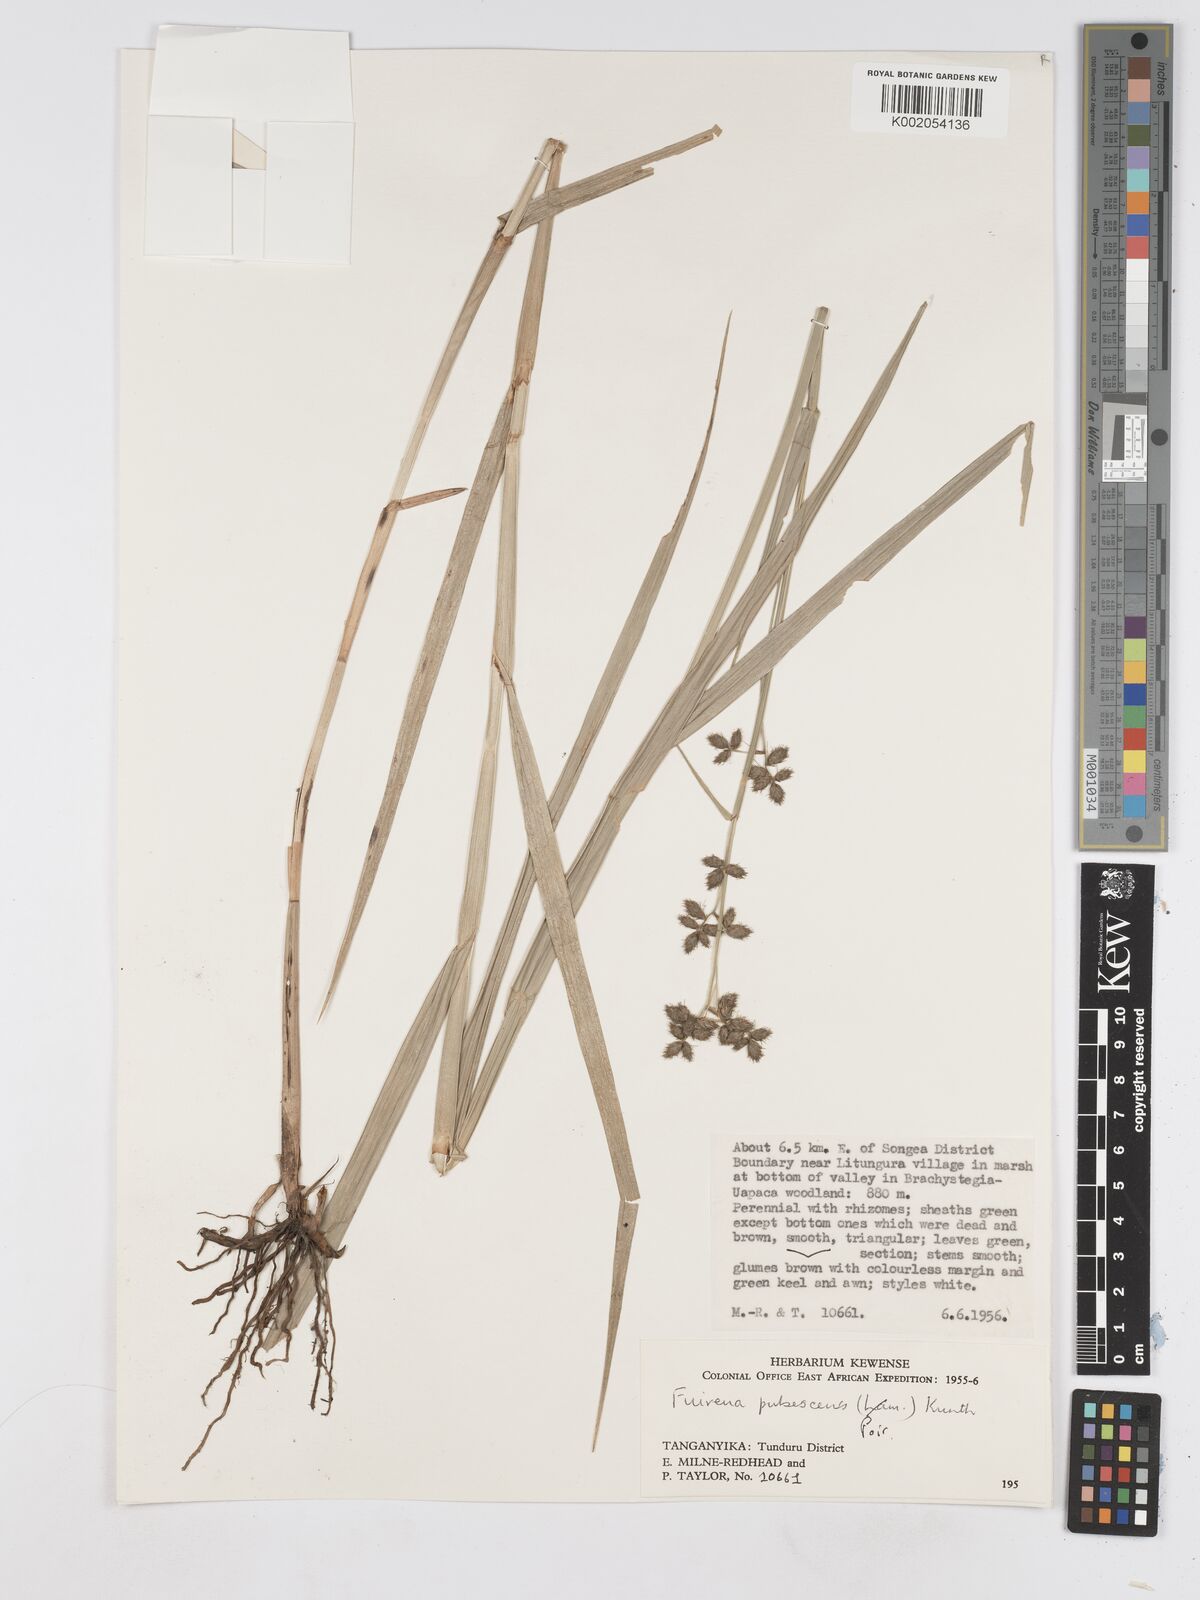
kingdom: Plantae
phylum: Tracheophyta
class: Liliopsida
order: Poales
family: Cyperaceae
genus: Fuirena
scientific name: Fuirena pubescens
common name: Hairy sedge
